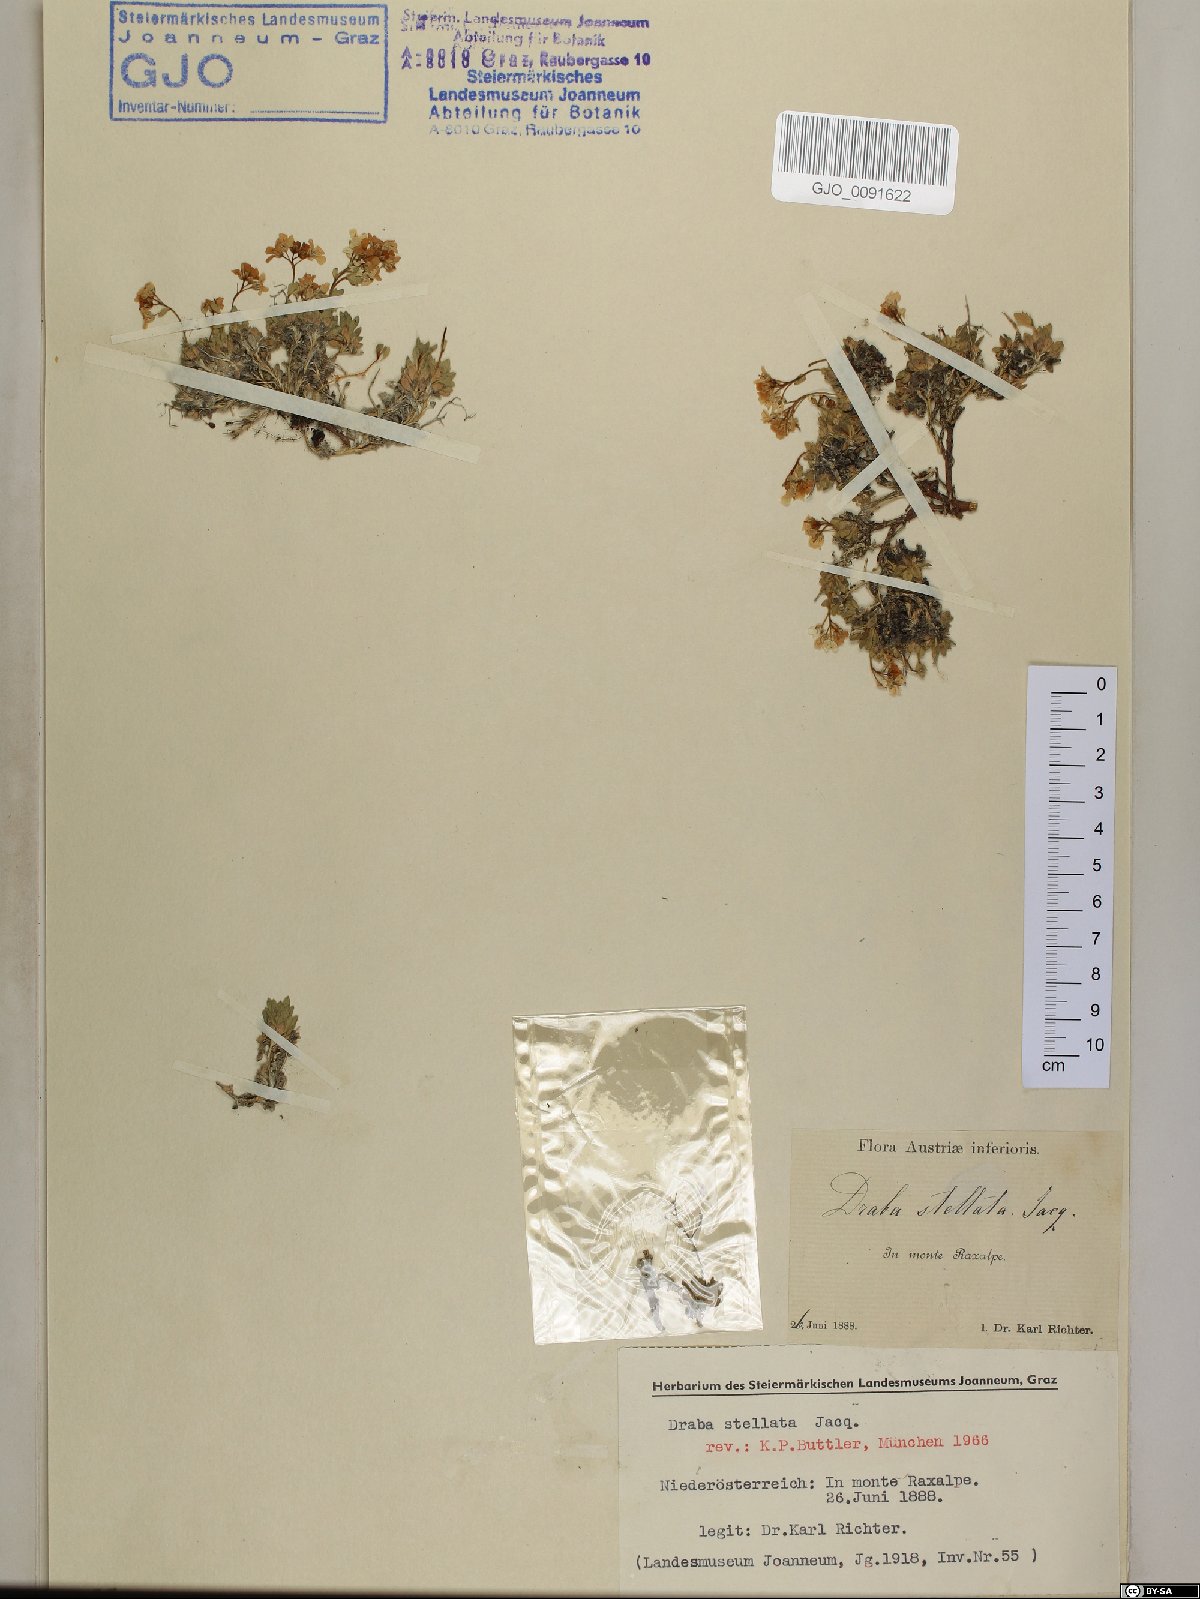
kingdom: Plantae
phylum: Tracheophyta
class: Magnoliopsida
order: Brassicales
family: Brassicaceae
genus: Draba
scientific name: Draba stellata
